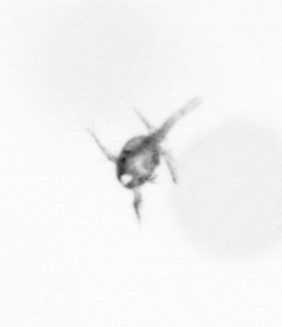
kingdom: Animalia
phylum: Arthropoda
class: Copepoda
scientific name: Copepoda
